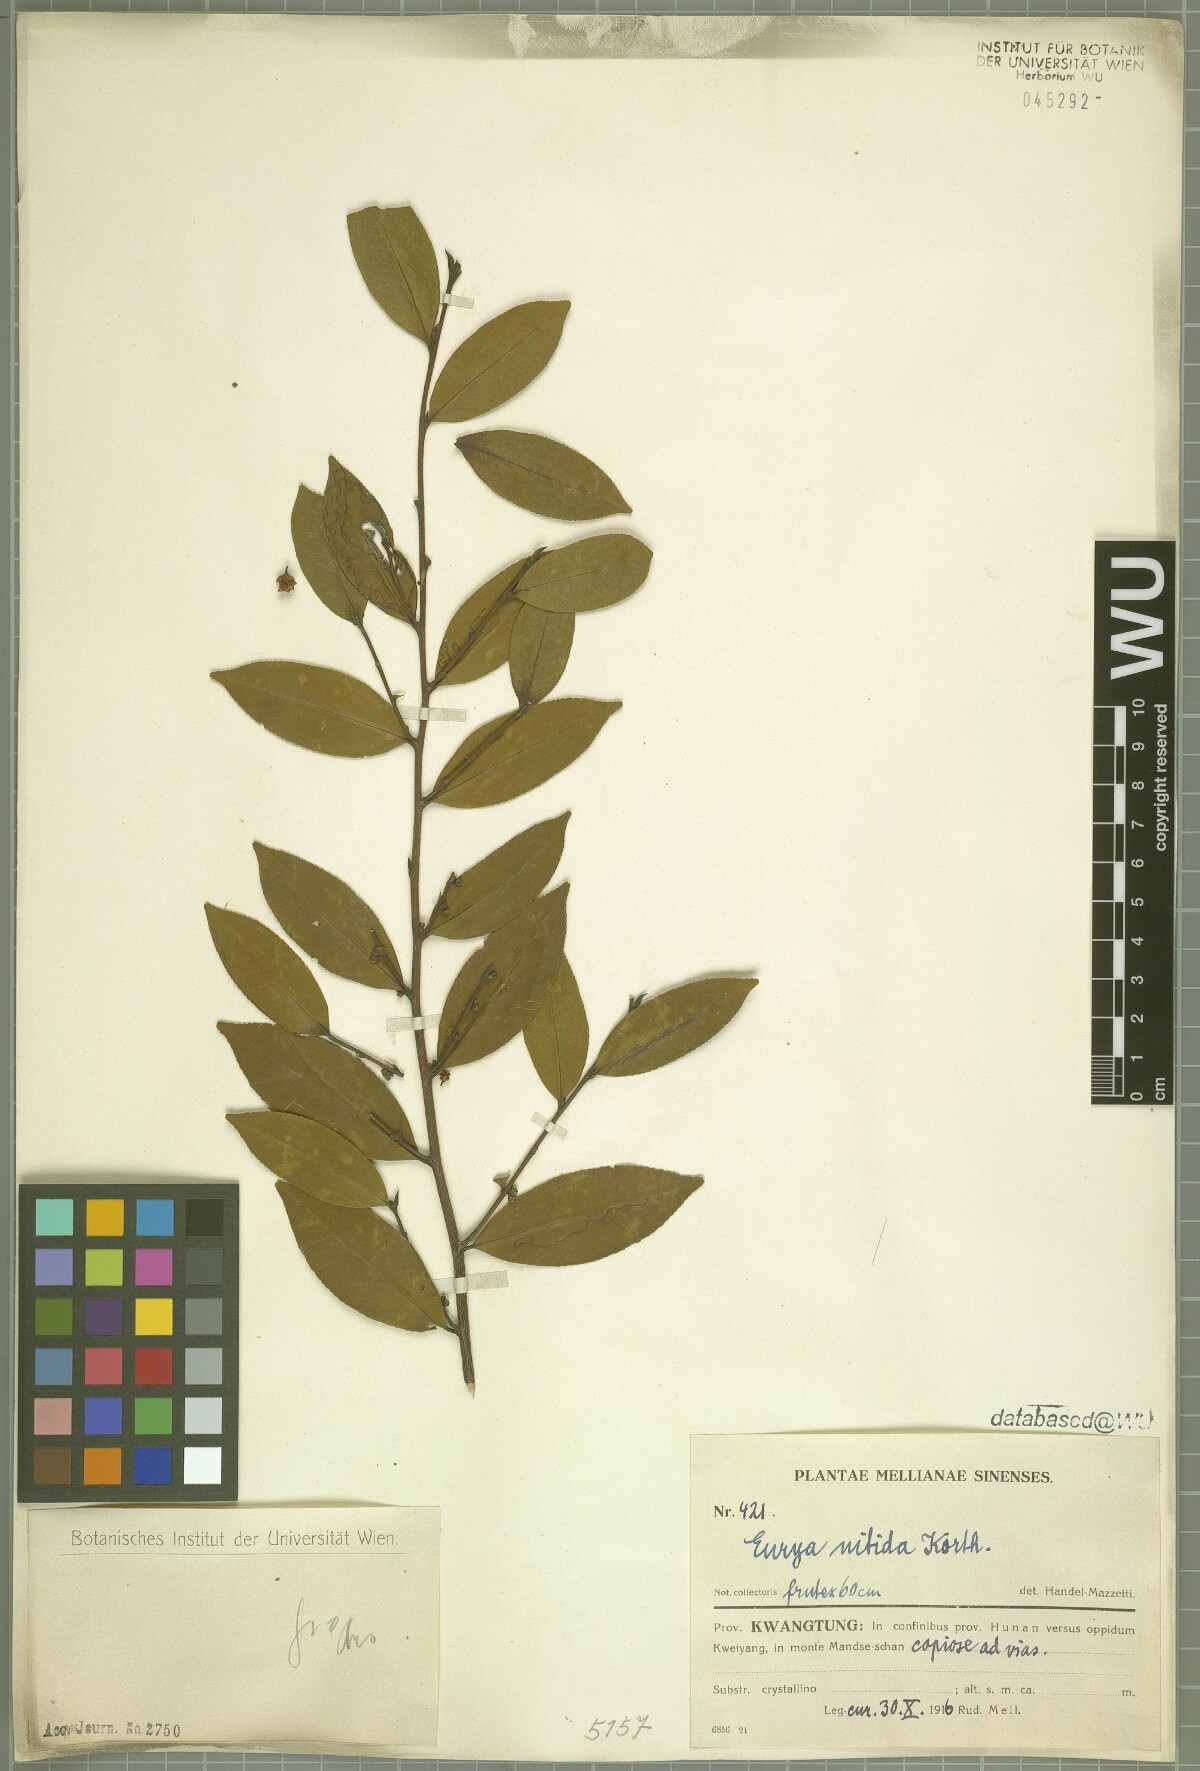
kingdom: Plantae
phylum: Tracheophyta
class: Magnoliopsida
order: Ericales
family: Pentaphylacaceae
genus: Eurya
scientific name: Eurya nitida
